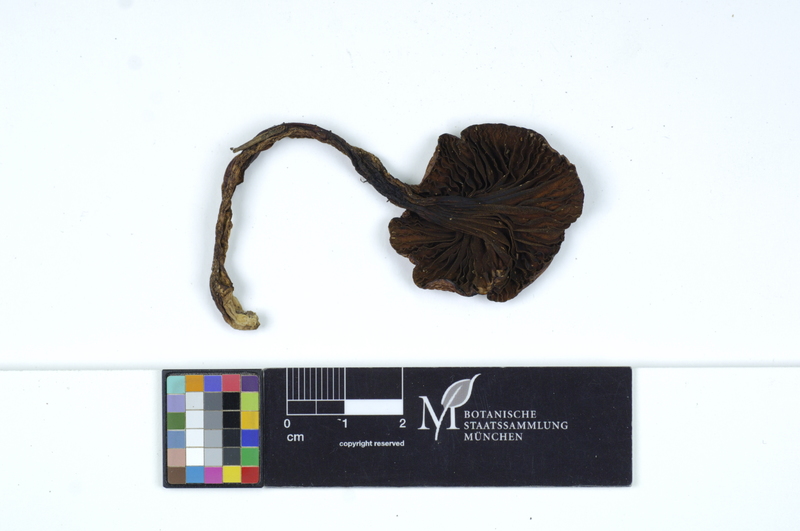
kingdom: Fungi
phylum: Basidiomycota
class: Agaricomycetes
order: Boletales
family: Gomphidiaceae
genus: Chroogomphus
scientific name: Chroogomphus rutilus
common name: Copper spike
